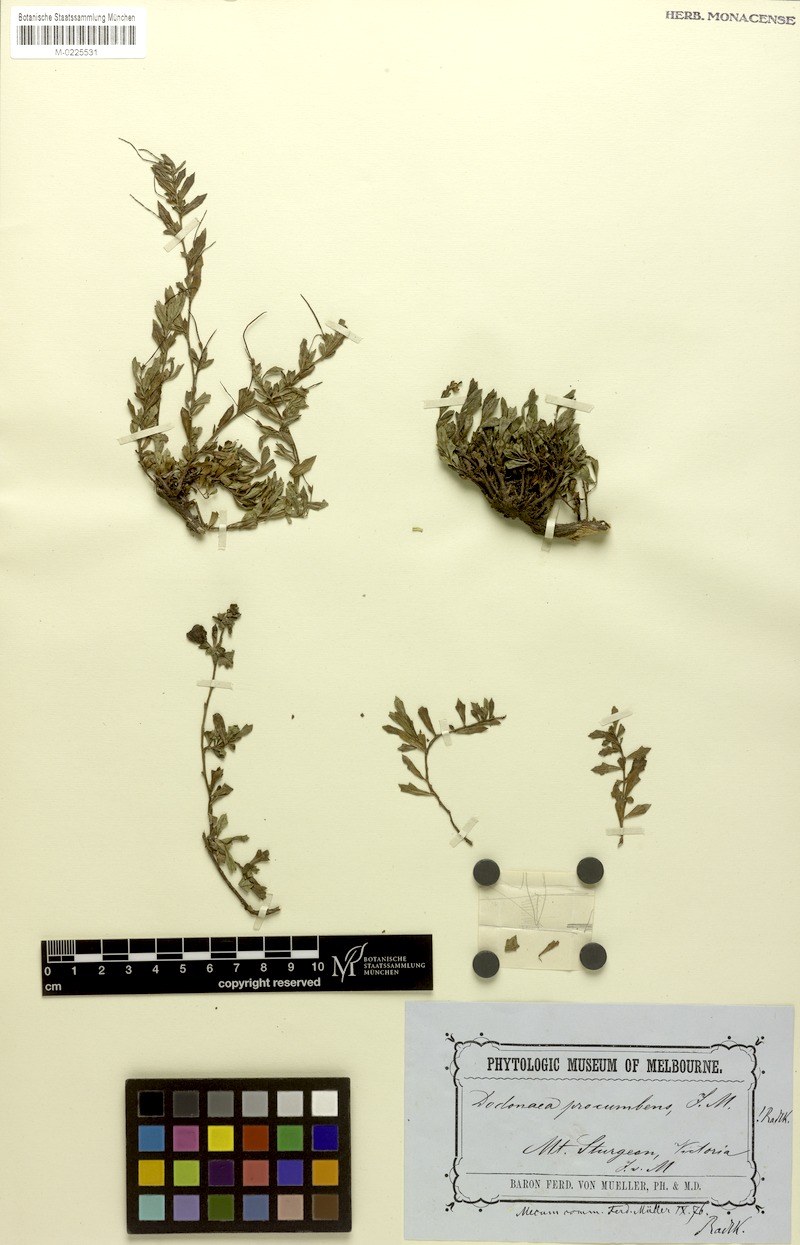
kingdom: Plantae
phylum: Tracheophyta
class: Magnoliopsida
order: Sapindales
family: Sapindaceae
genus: Dodonaea
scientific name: Dodonaea procumbens
